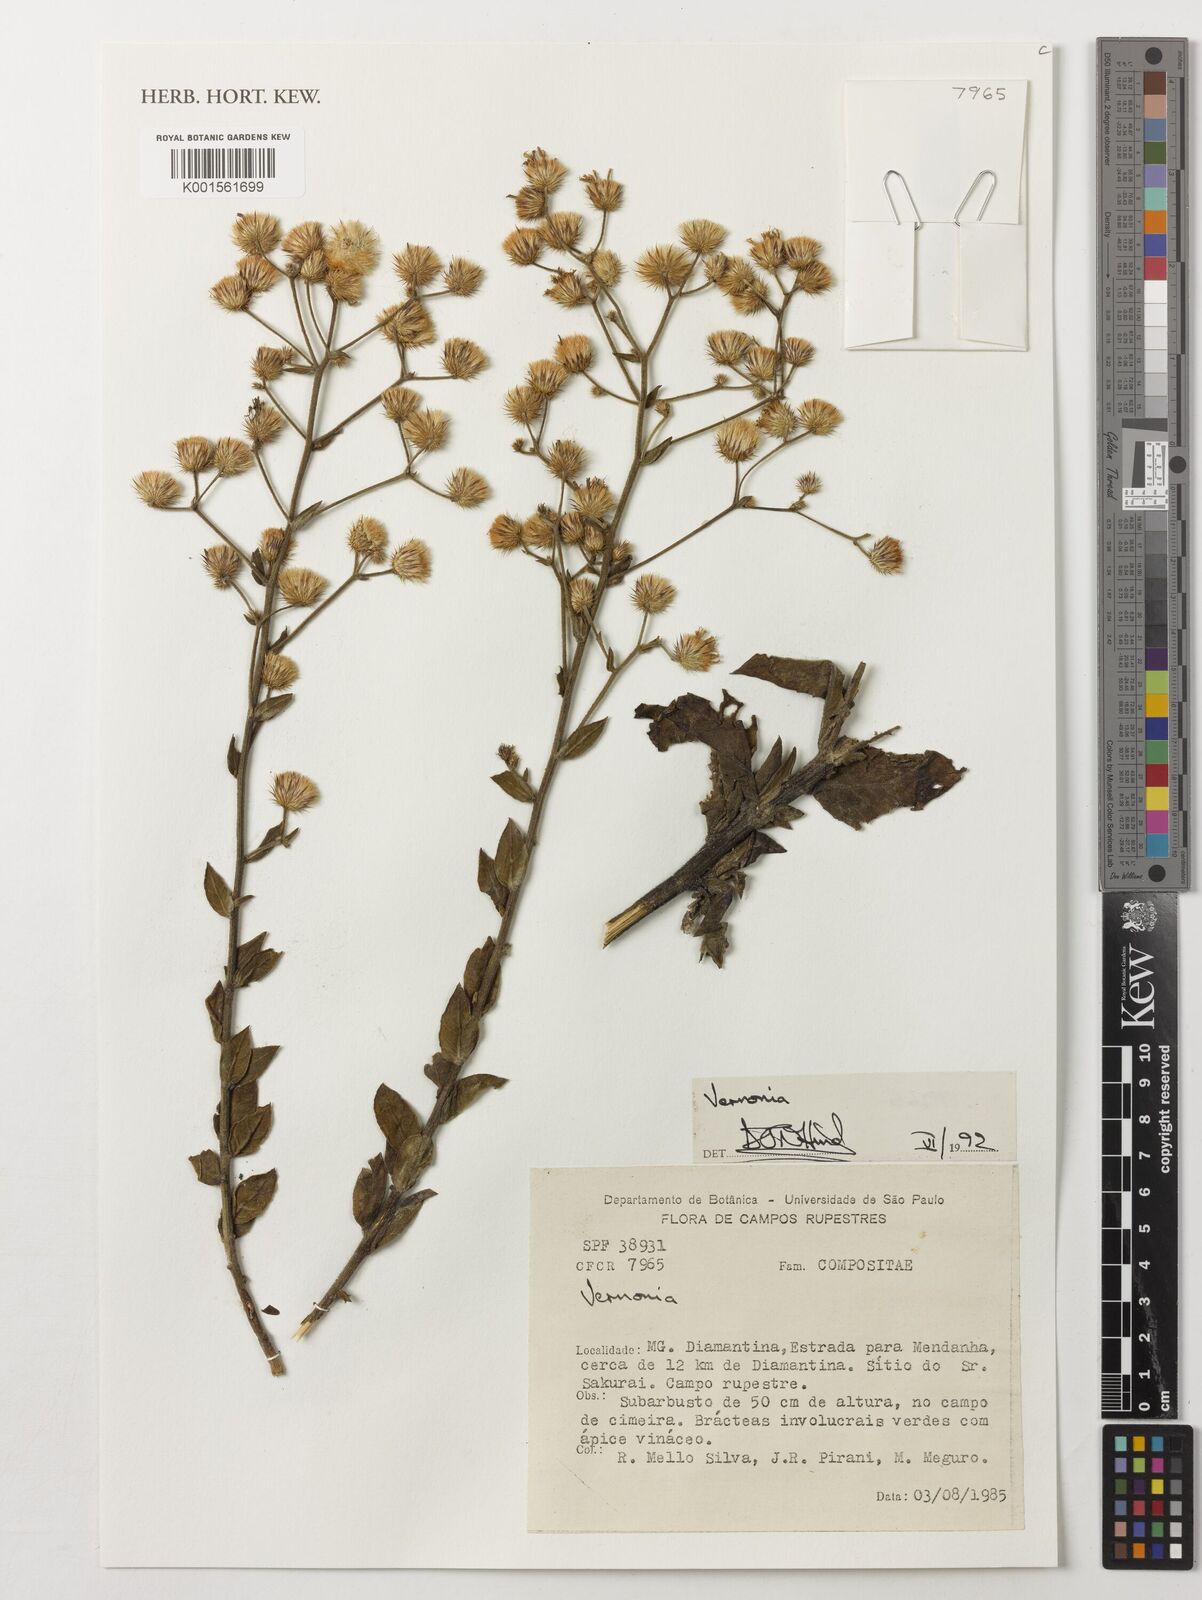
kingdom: Plantae
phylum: Tracheophyta
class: Magnoliopsida
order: Asterales
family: Asteraceae
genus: Echinocoryne
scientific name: Echinocoryne holosericea
